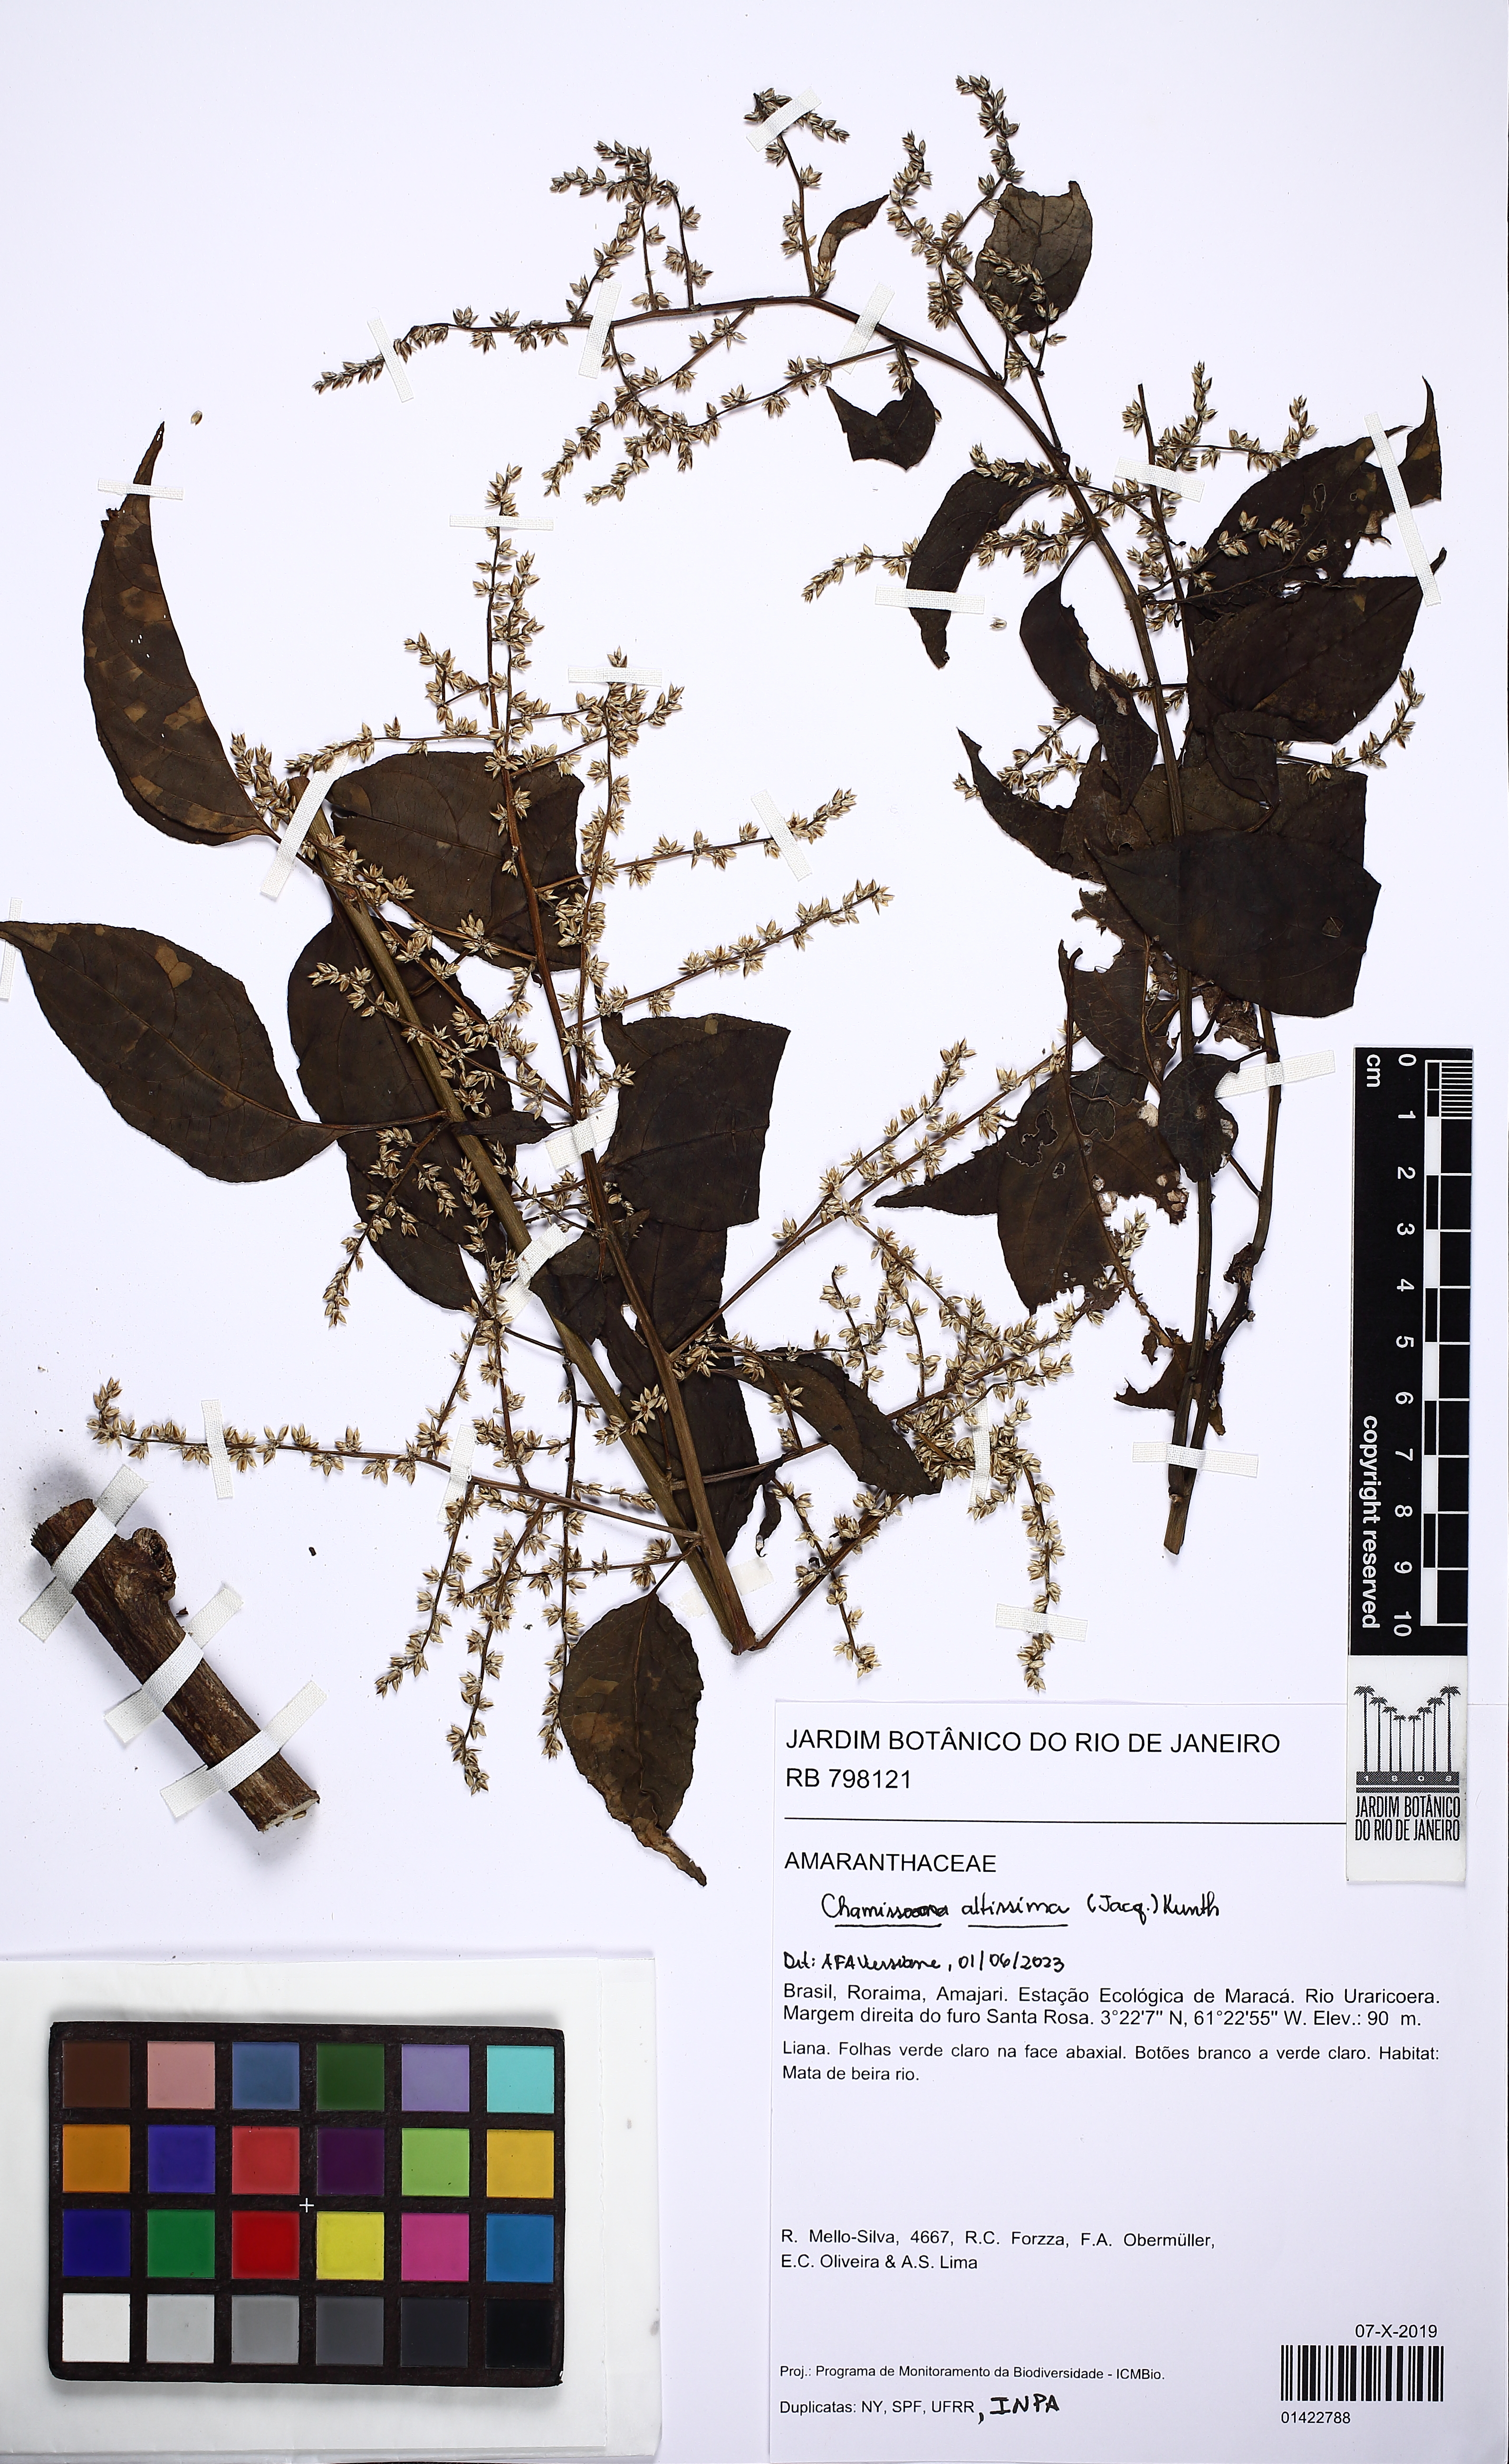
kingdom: Plantae
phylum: Tracheophyta
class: Magnoliopsida
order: Caryophyllales
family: Amaranthaceae
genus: Chamissoa
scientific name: Chamissoa altissima
